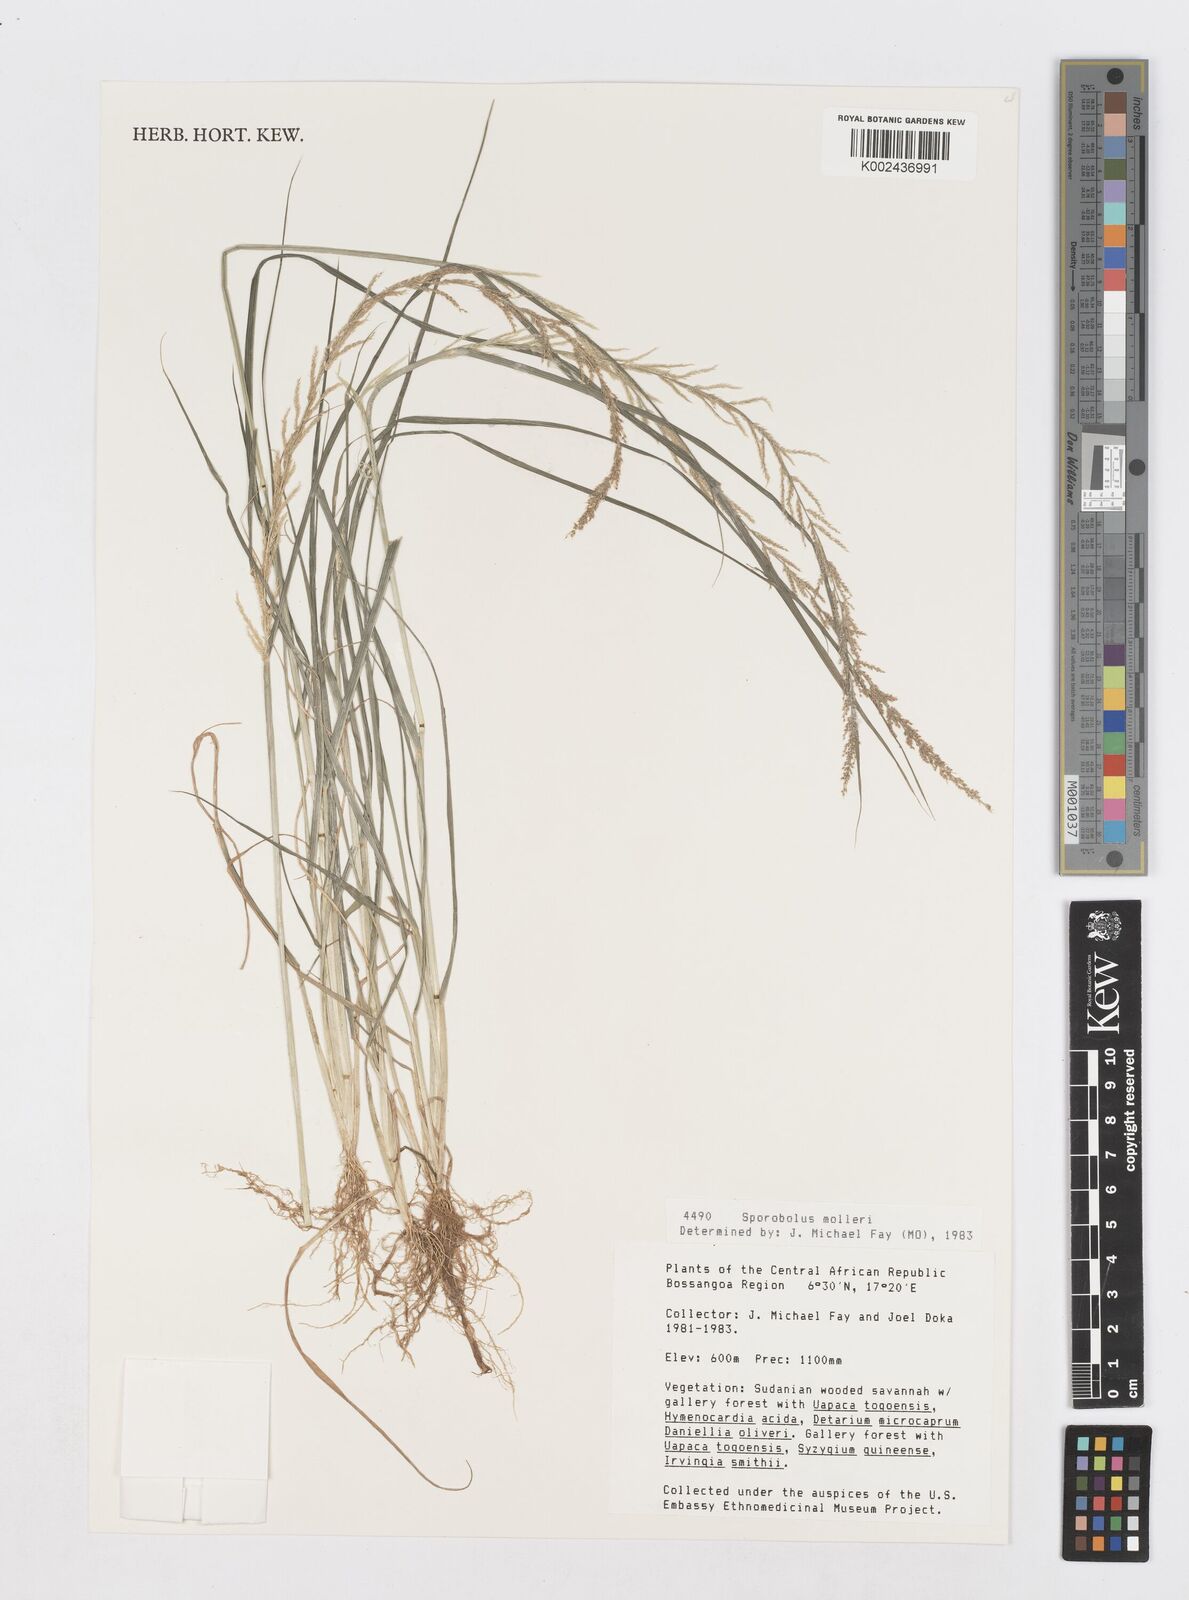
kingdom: Plantae
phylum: Tracheophyta
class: Liliopsida
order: Poales
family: Poaceae
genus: Sporobolus
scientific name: Sporobolus molleri
